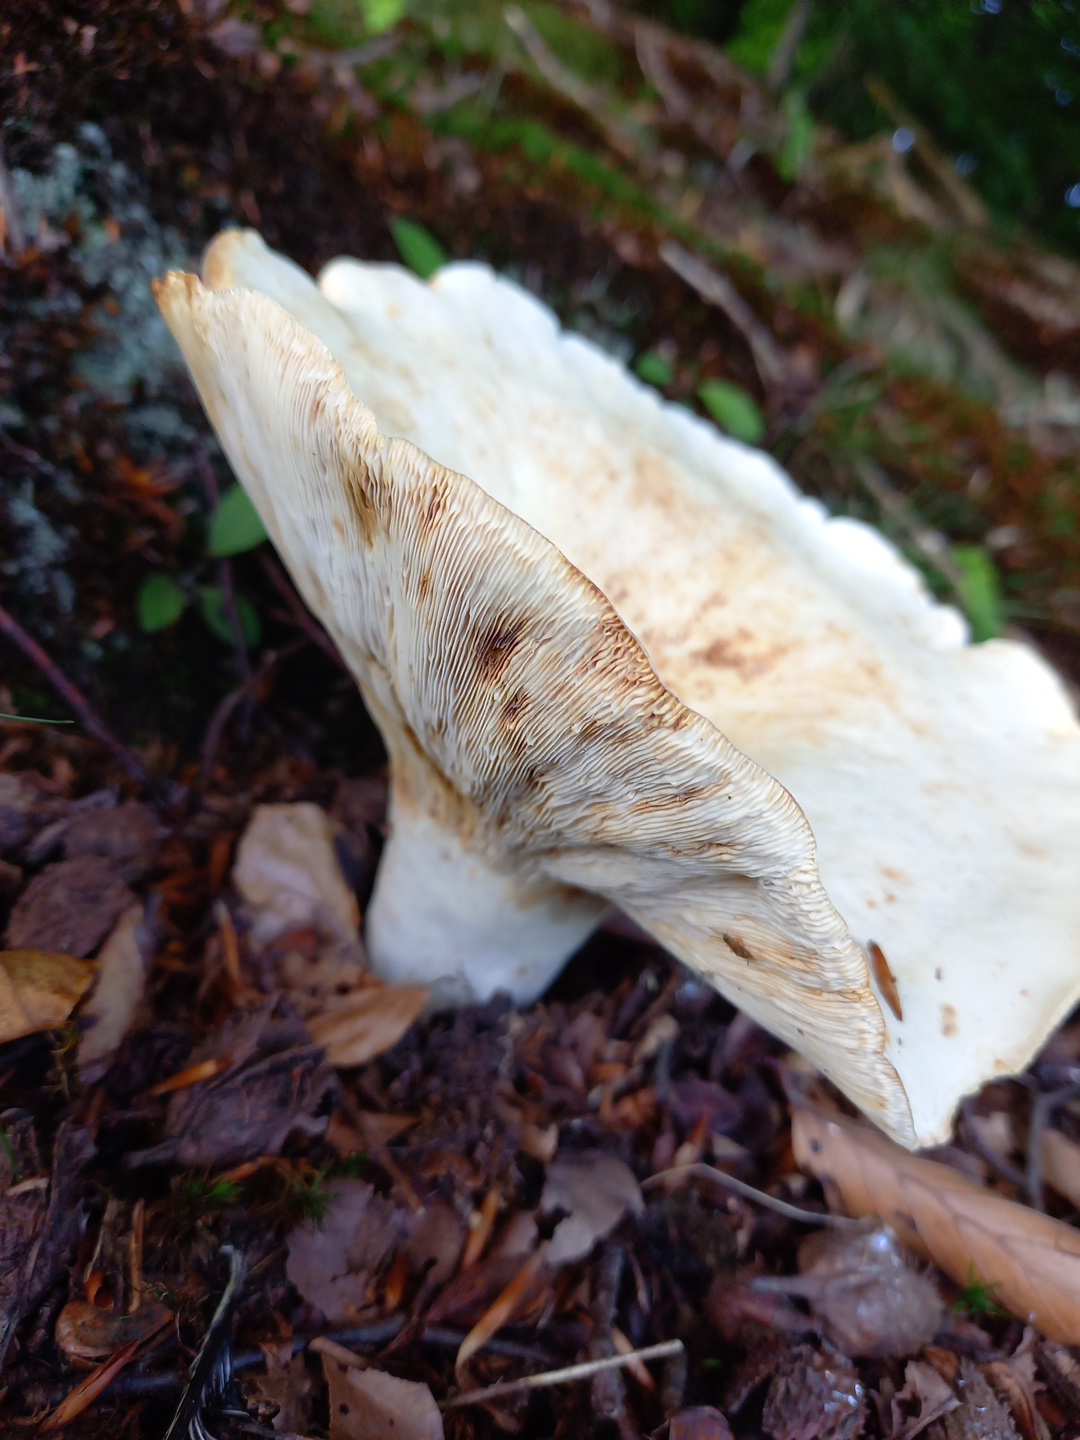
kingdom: Fungi
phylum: Basidiomycota
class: Agaricomycetes
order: Russulales
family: Russulaceae
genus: Lactifluus
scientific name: Lactifluus piperatus
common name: peber-mælkehat
